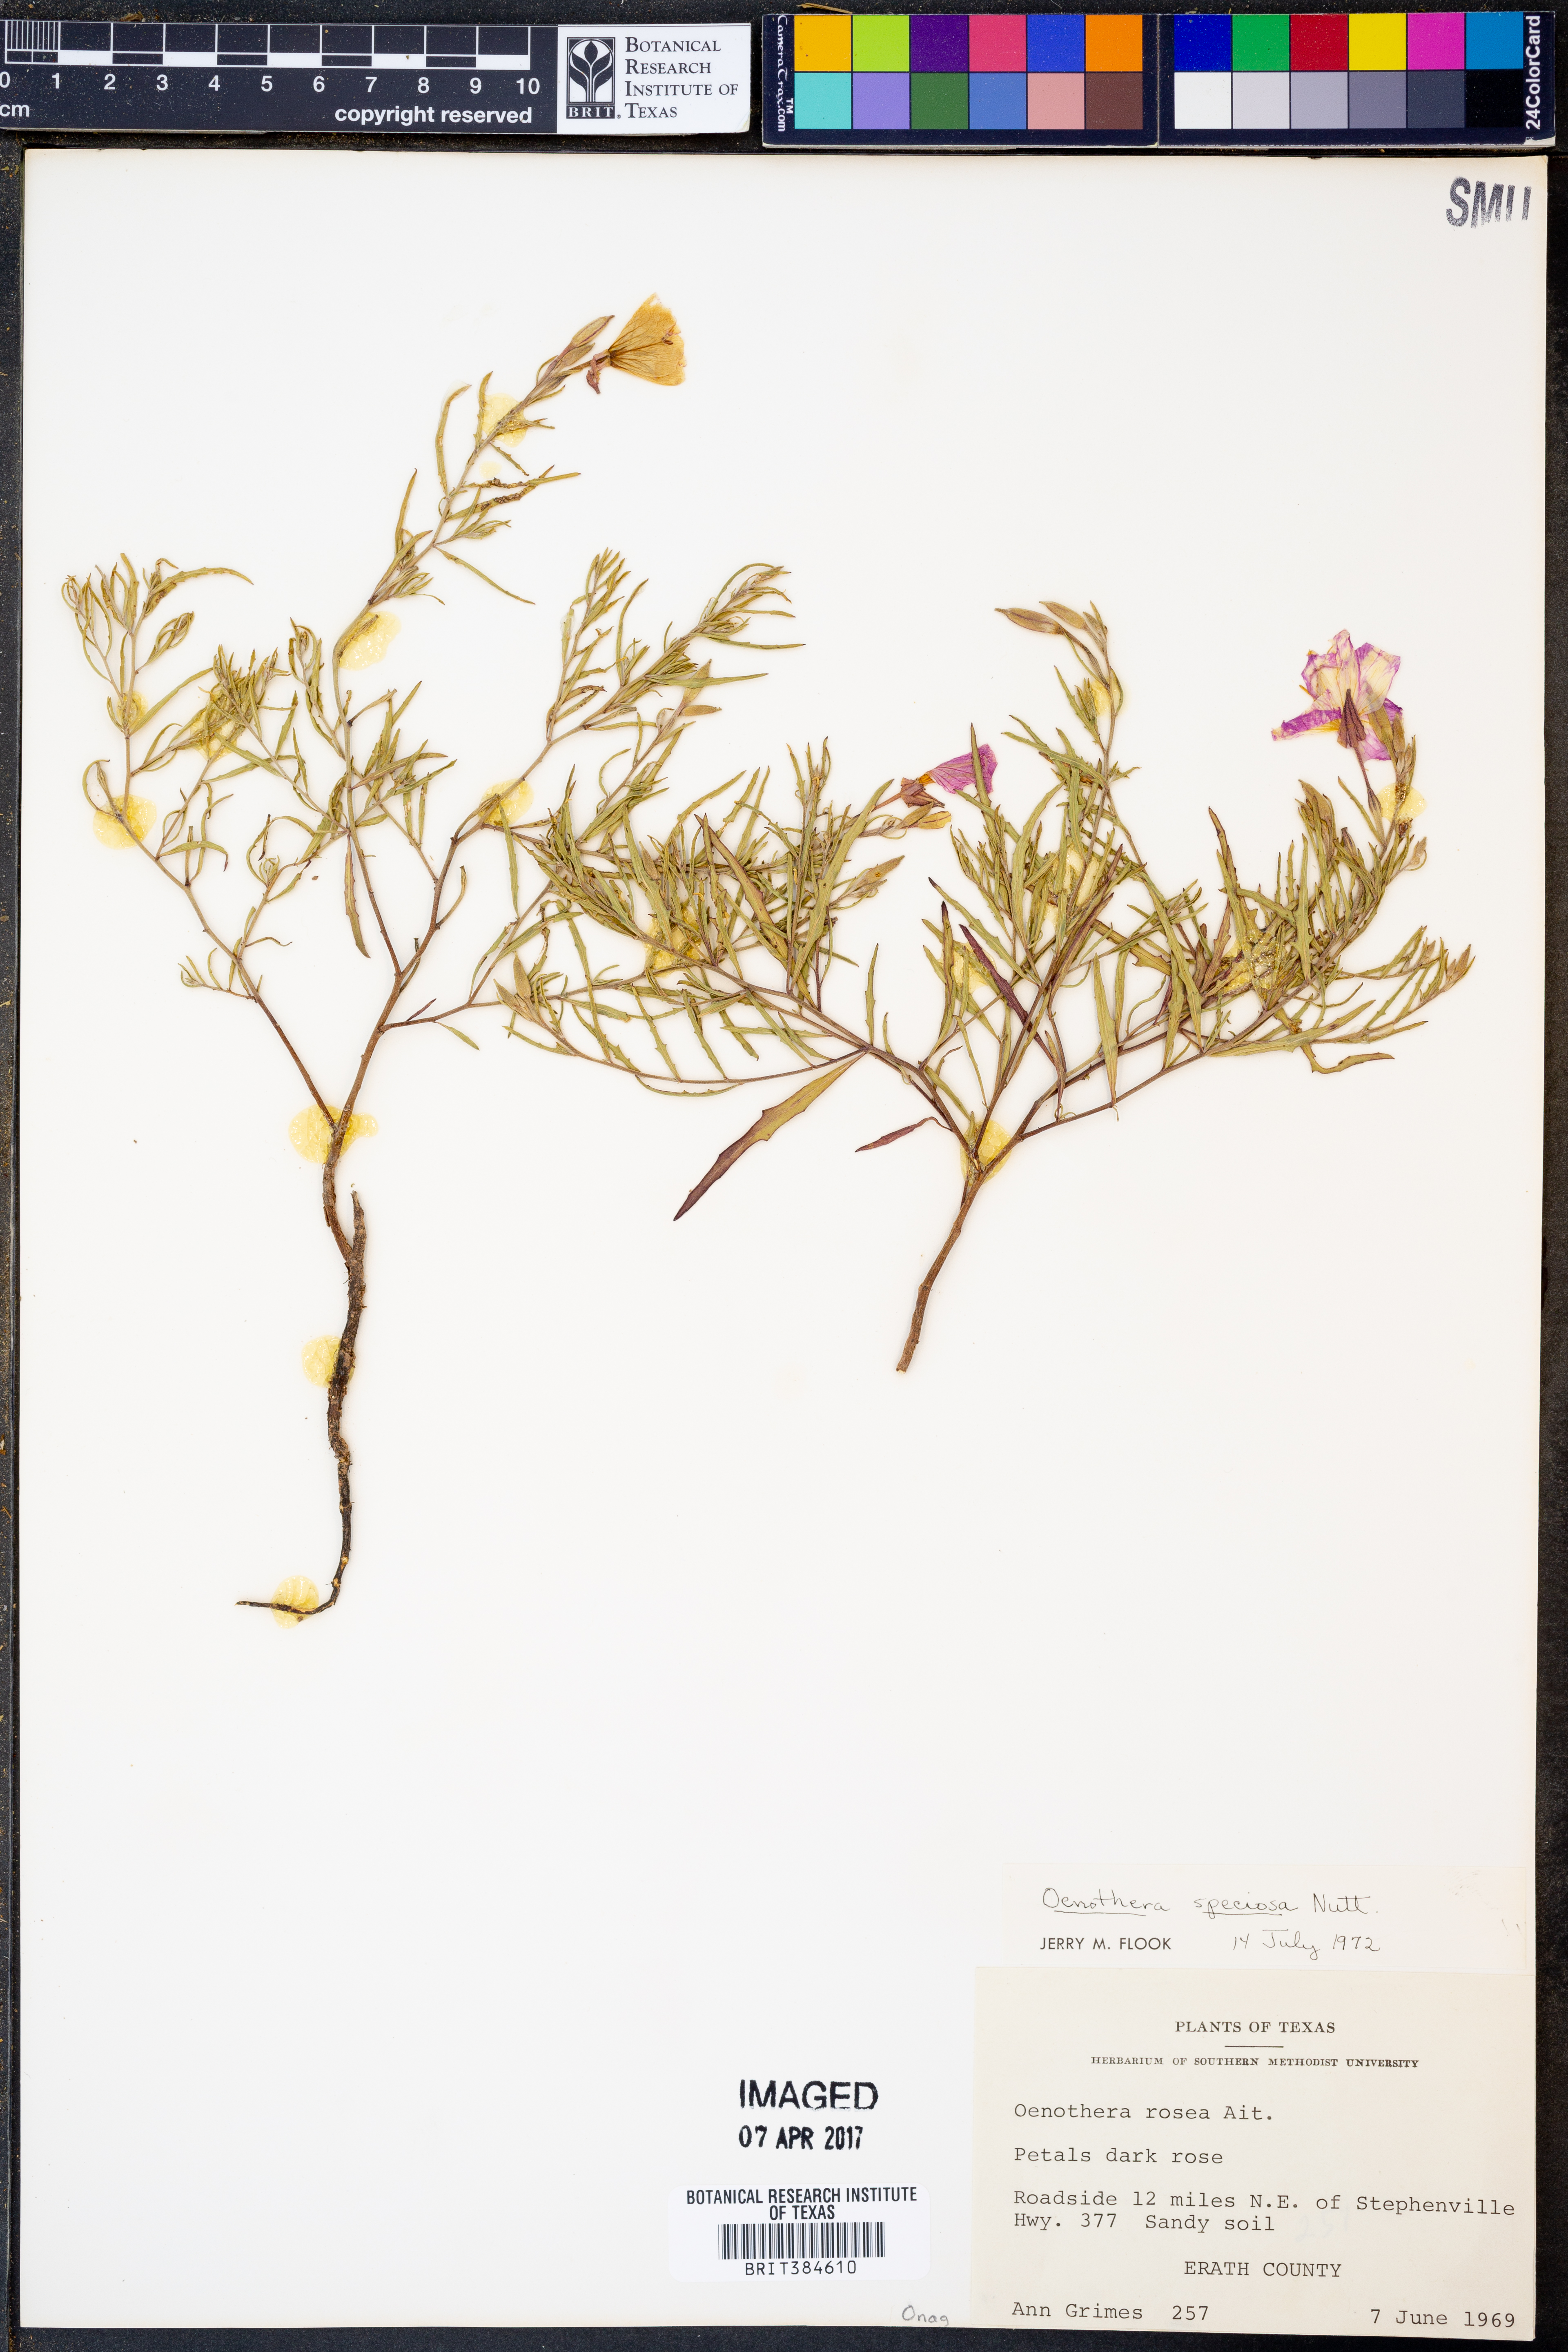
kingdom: Plantae
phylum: Tracheophyta
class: Magnoliopsida
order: Myrtales
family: Onagraceae
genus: Oenothera
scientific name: Oenothera speciosa
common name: White evening-primrose
